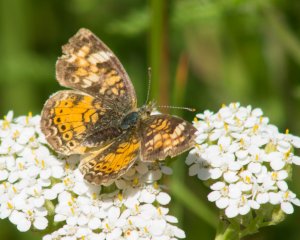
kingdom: Animalia
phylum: Arthropoda
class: Insecta
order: Lepidoptera
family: Nymphalidae
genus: Phyciodes
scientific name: Phyciodes tharos
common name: Northern Crescent
